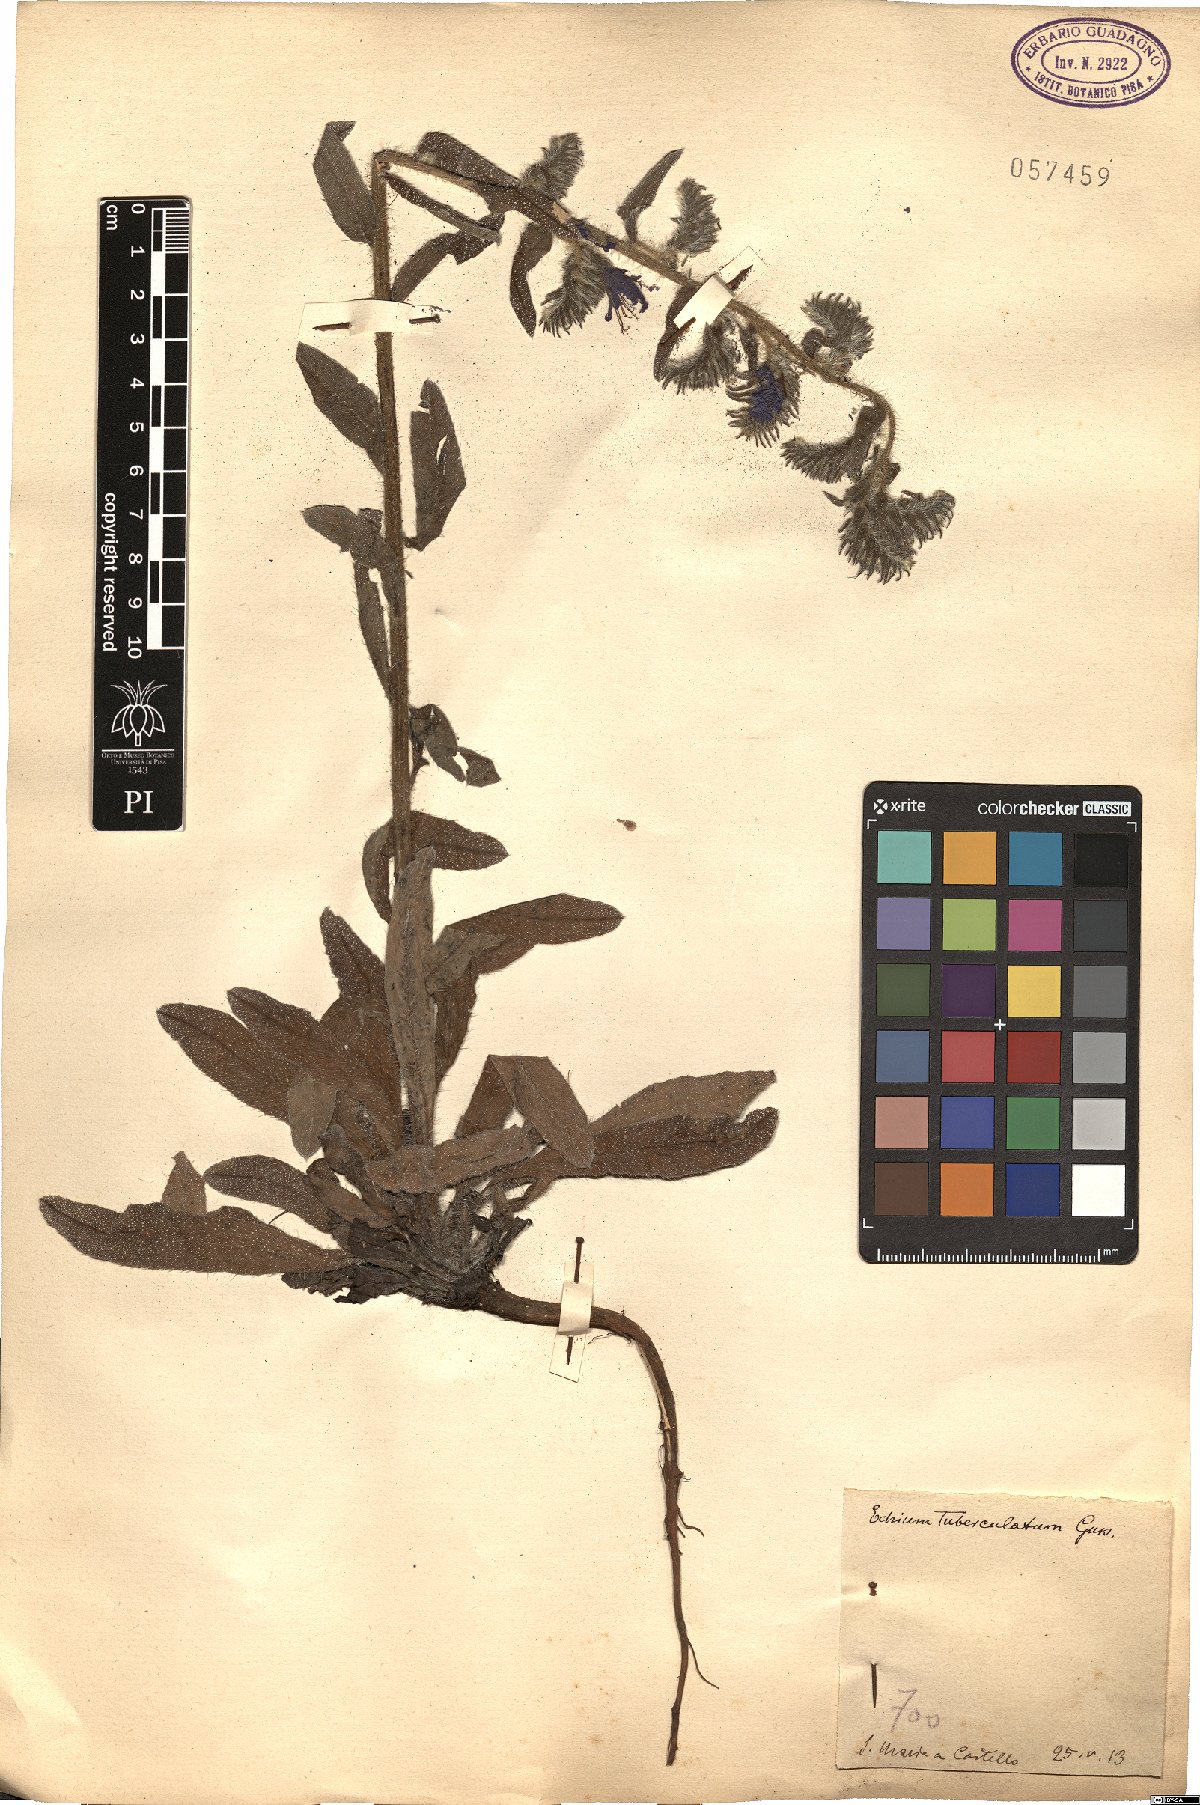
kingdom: Plantae
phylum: Tracheophyta
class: Magnoliopsida
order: Boraginales
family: Boraginaceae
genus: Echium
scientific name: Echium tuberculatum
